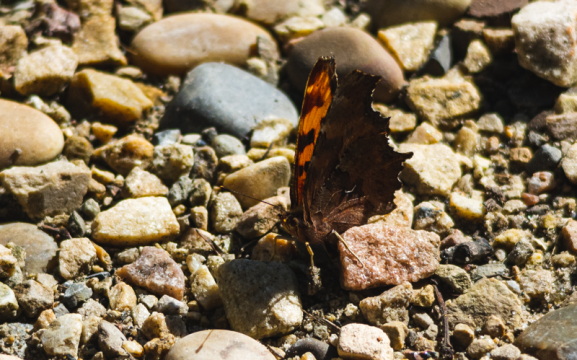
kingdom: Animalia
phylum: Arthropoda
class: Insecta
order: Lepidoptera
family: Nymphalidae
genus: Polygonia
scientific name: Polygonia satyrus
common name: Satyr Comma
